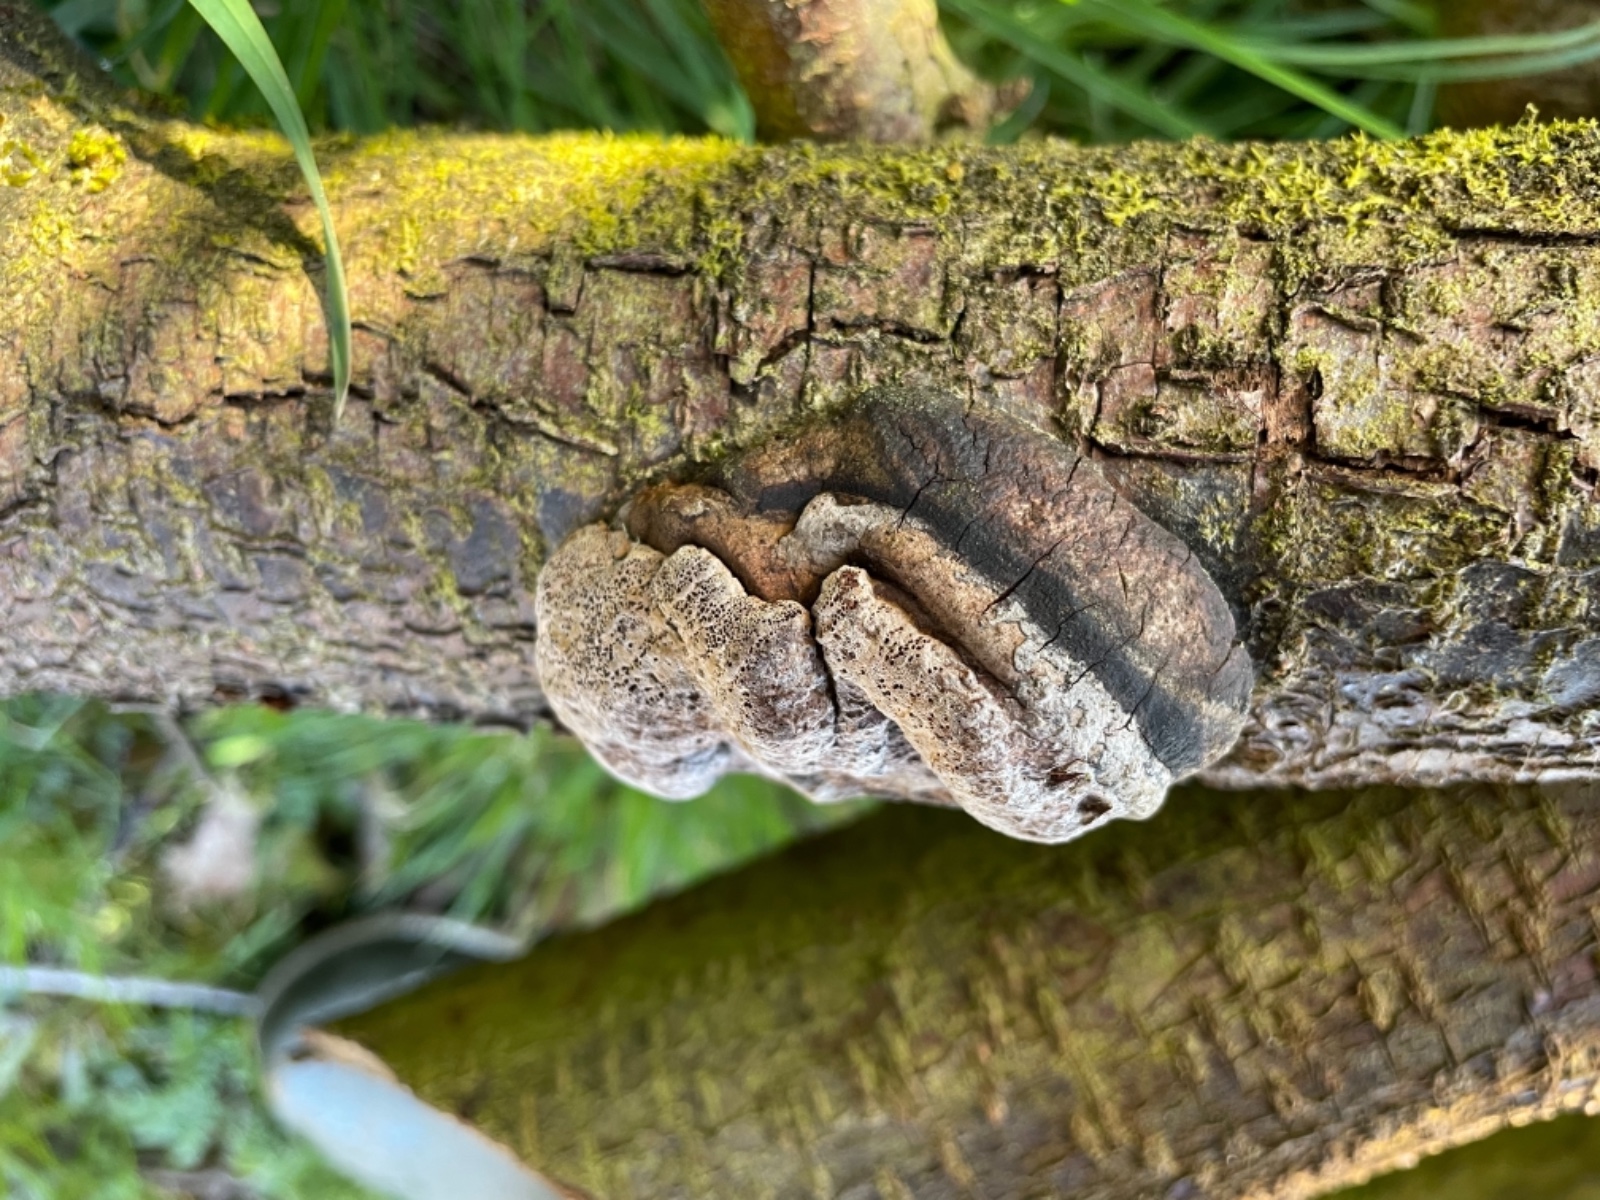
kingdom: Fungi
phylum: Basidiomycota
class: Agaricomycetes
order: Hymenochaetales
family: Hymenochaetaceae
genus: Phellinus
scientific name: Phellinus pomaceus
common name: blomme-ildporesvamp
